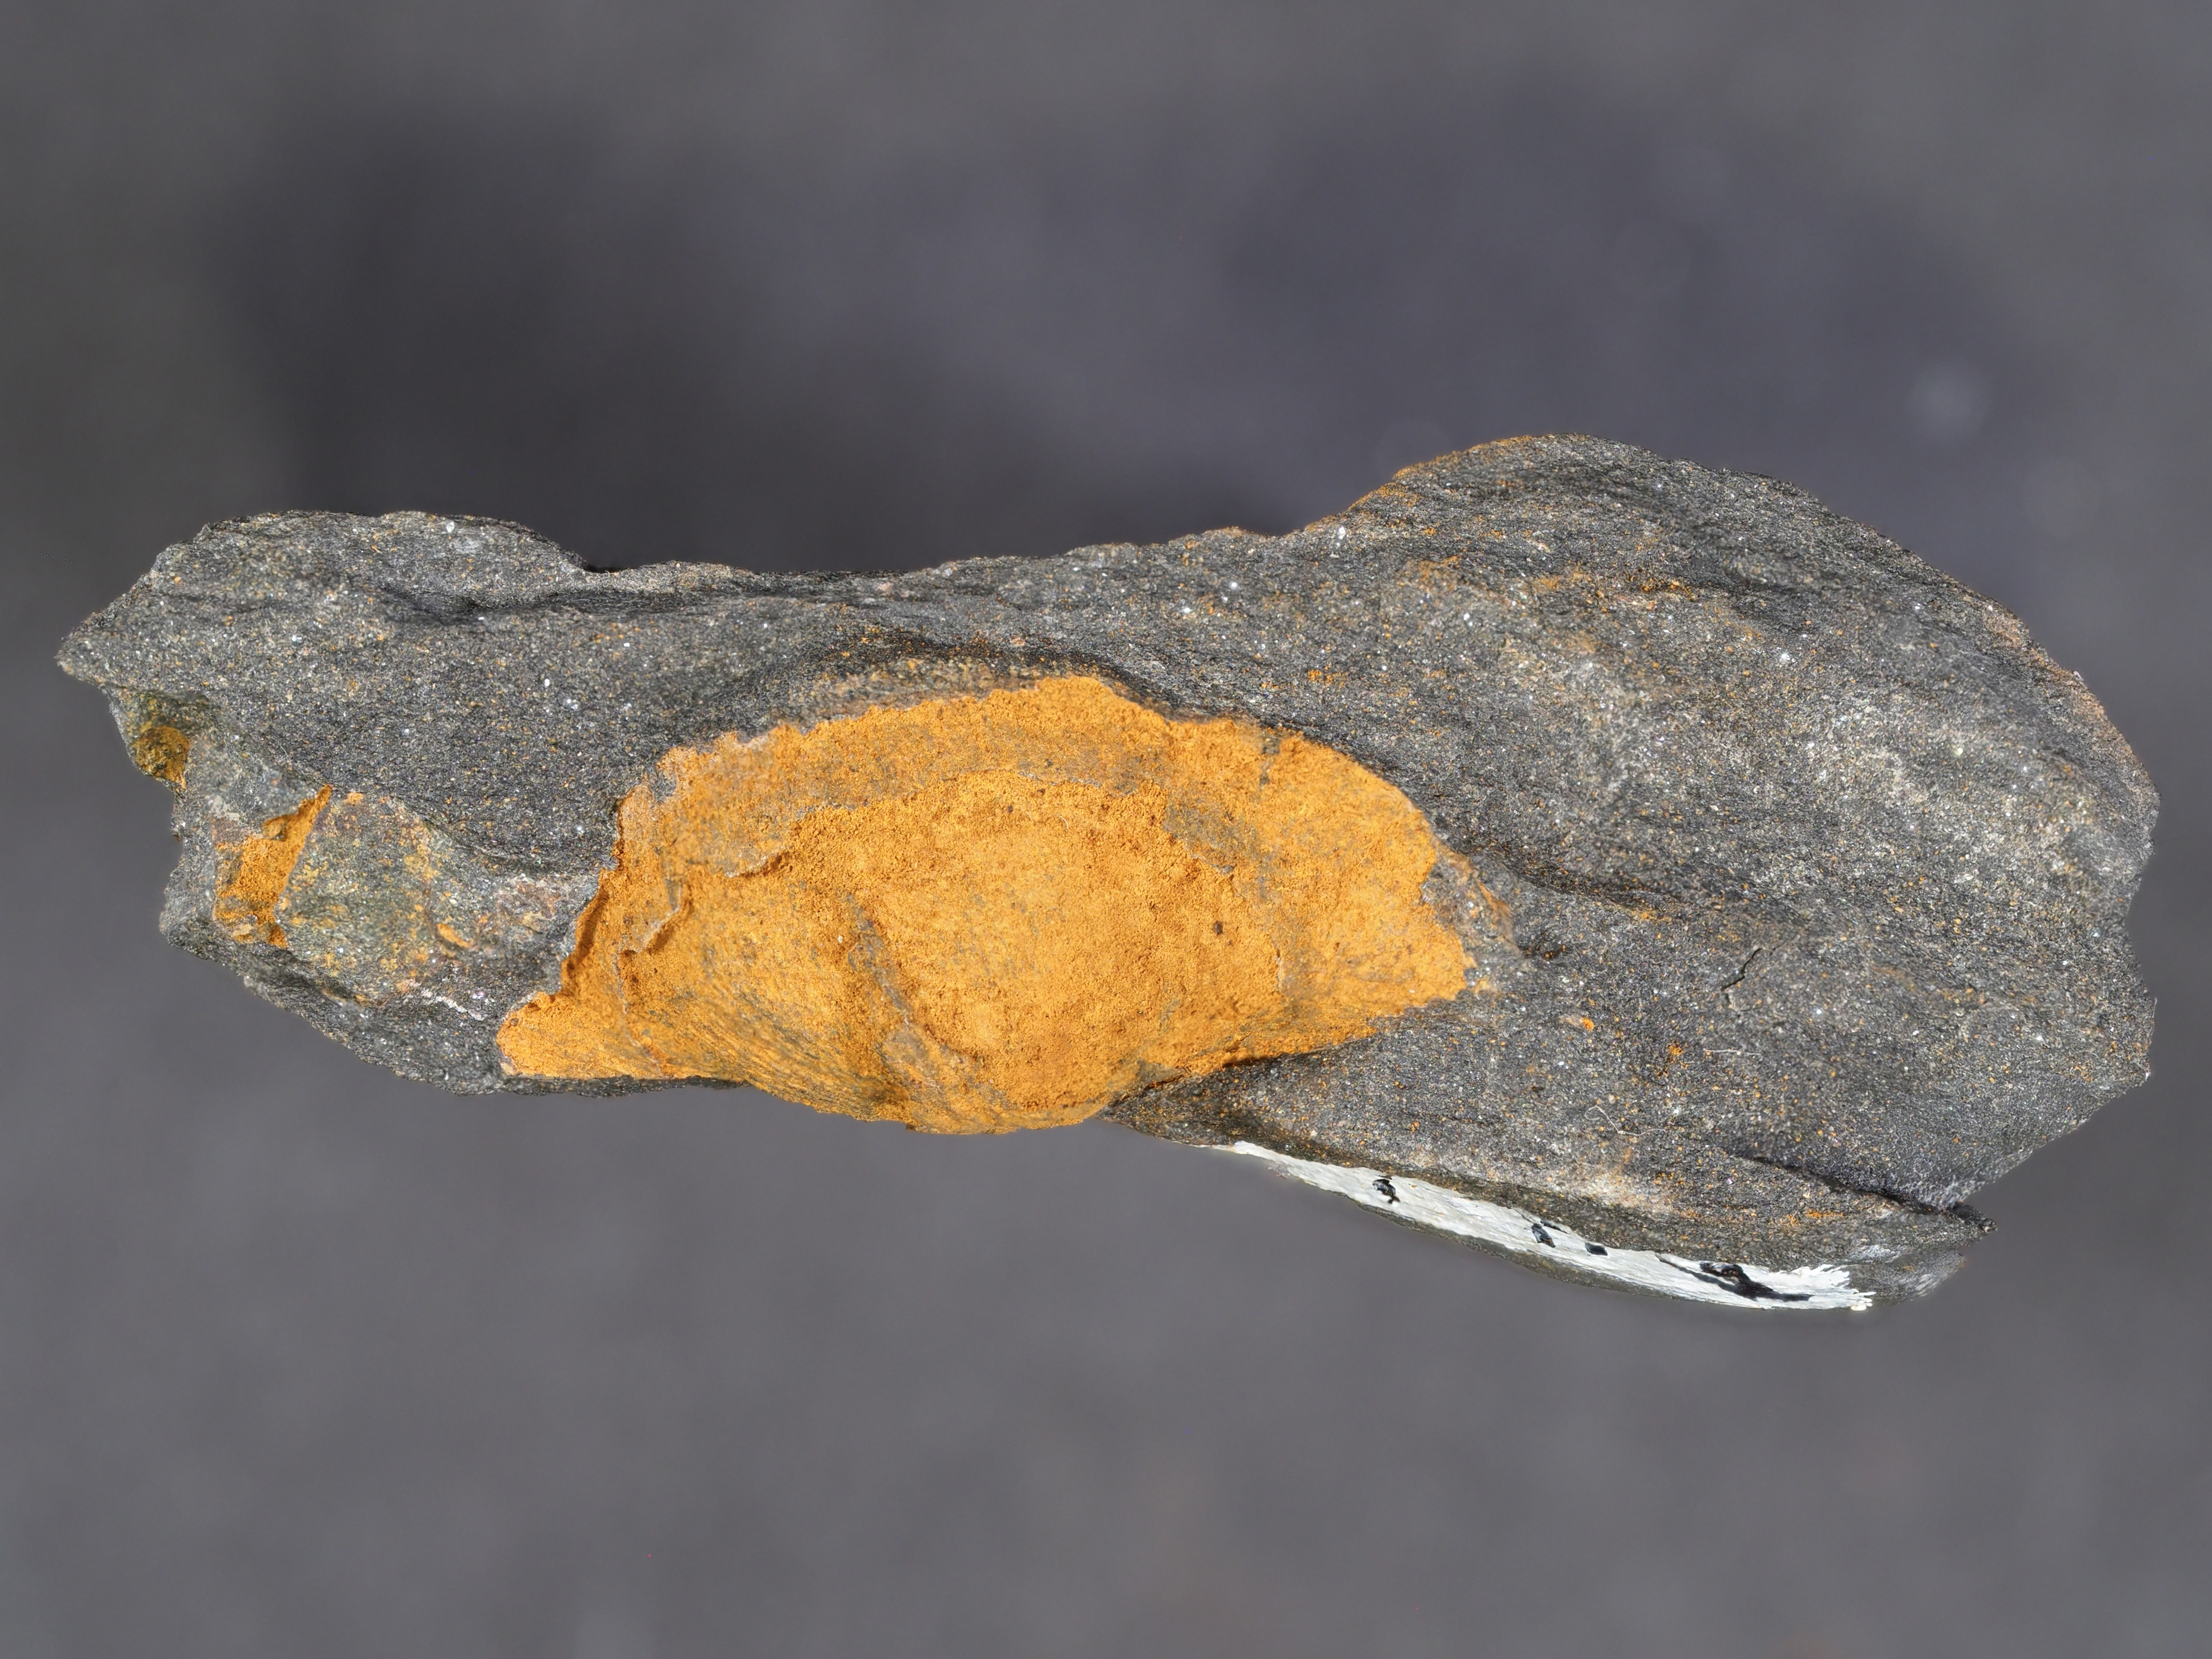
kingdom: Animalia
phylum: Brachiopoda
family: Eodevonariidae
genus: Loreleiella
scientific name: Loreleiella
